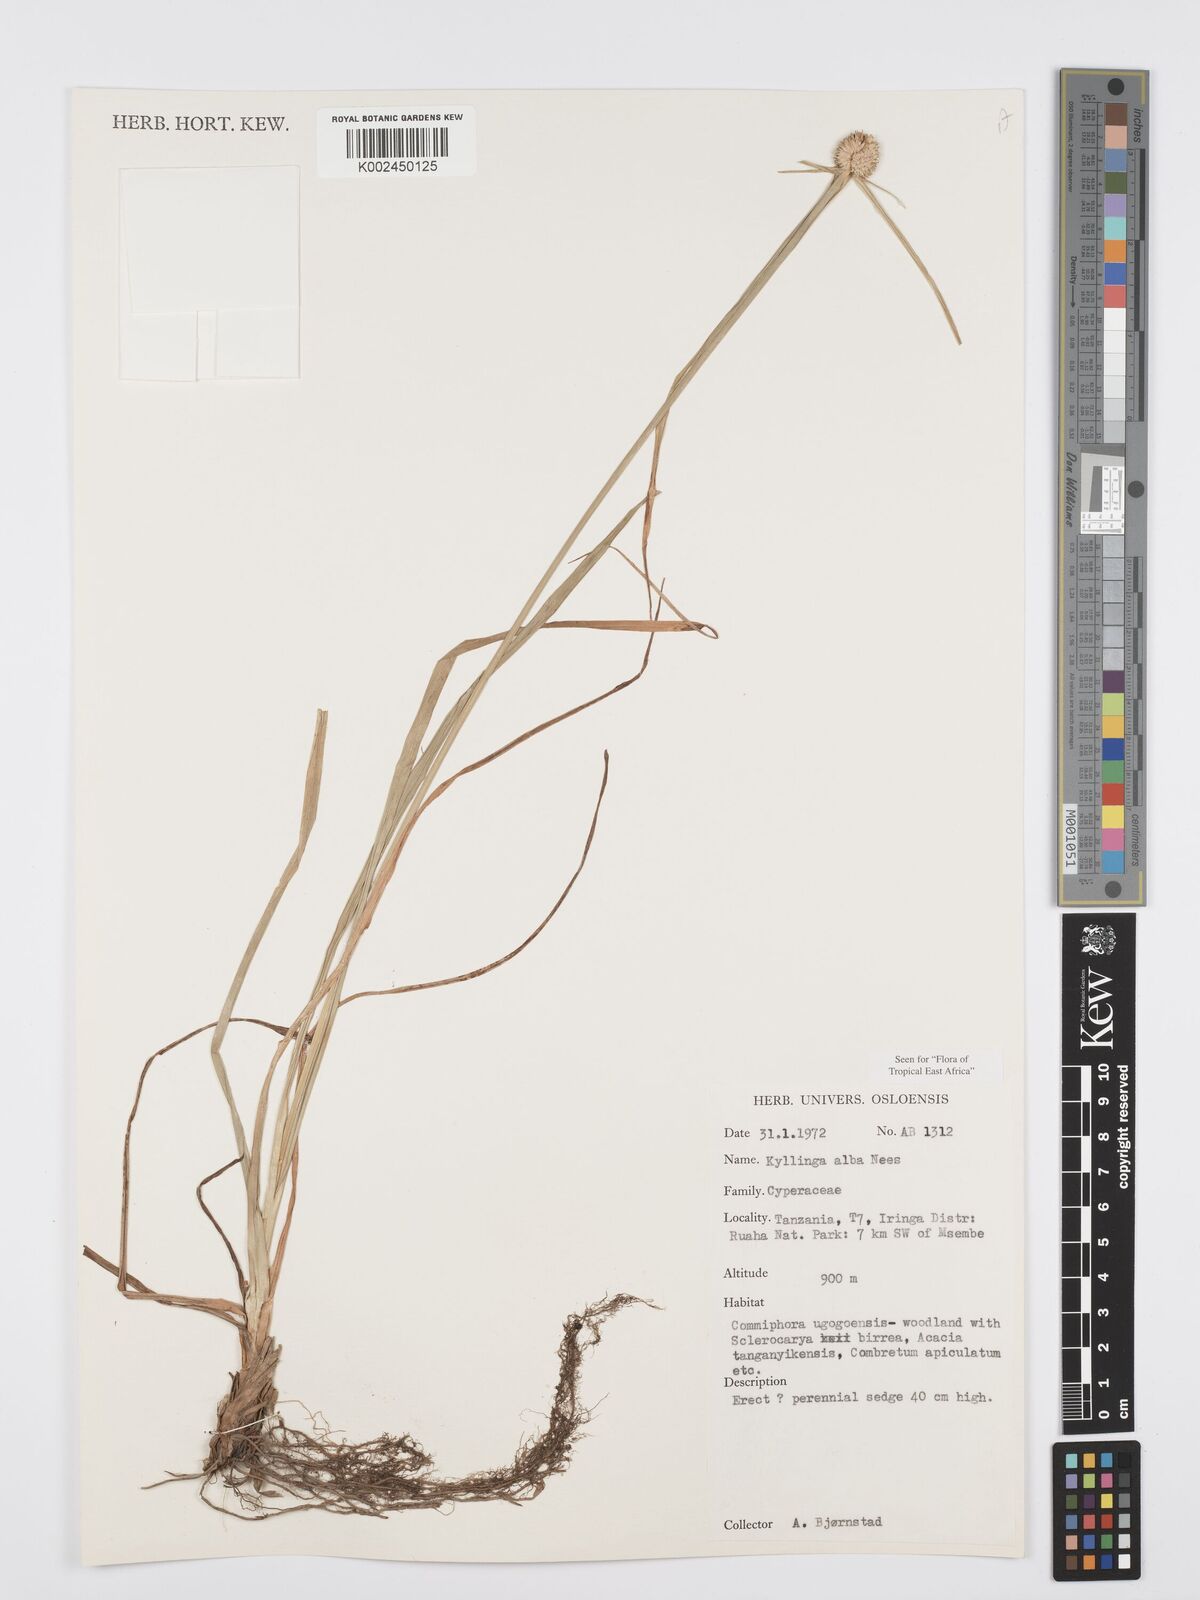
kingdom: Plantae
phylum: Tracheophyta
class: Liliopsida
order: Poales
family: Cyperaceae
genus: Cyperus
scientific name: Cyperus
